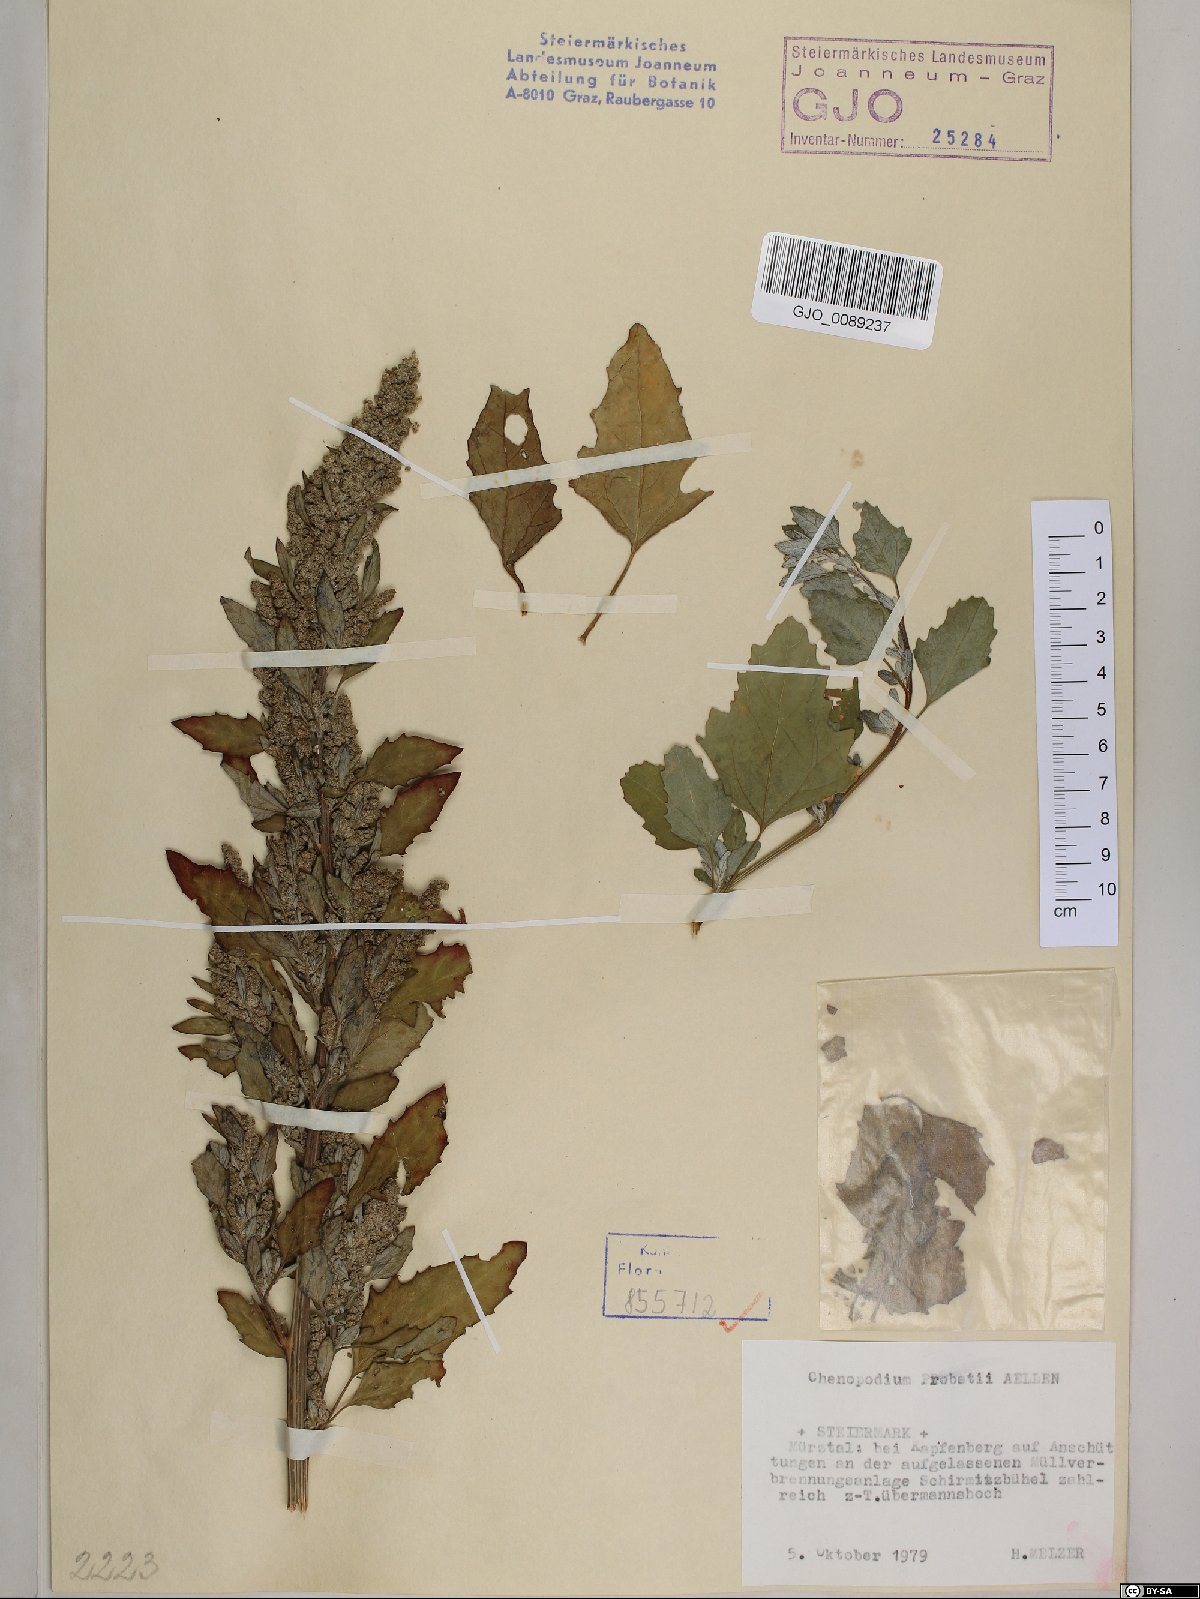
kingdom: Plantae
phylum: Tracheophyta
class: Magnoliopsida
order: Caryophyllales
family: Amaranthaceae
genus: Chenopodium
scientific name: Chenopodium probstii
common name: Probst's goosefoot
